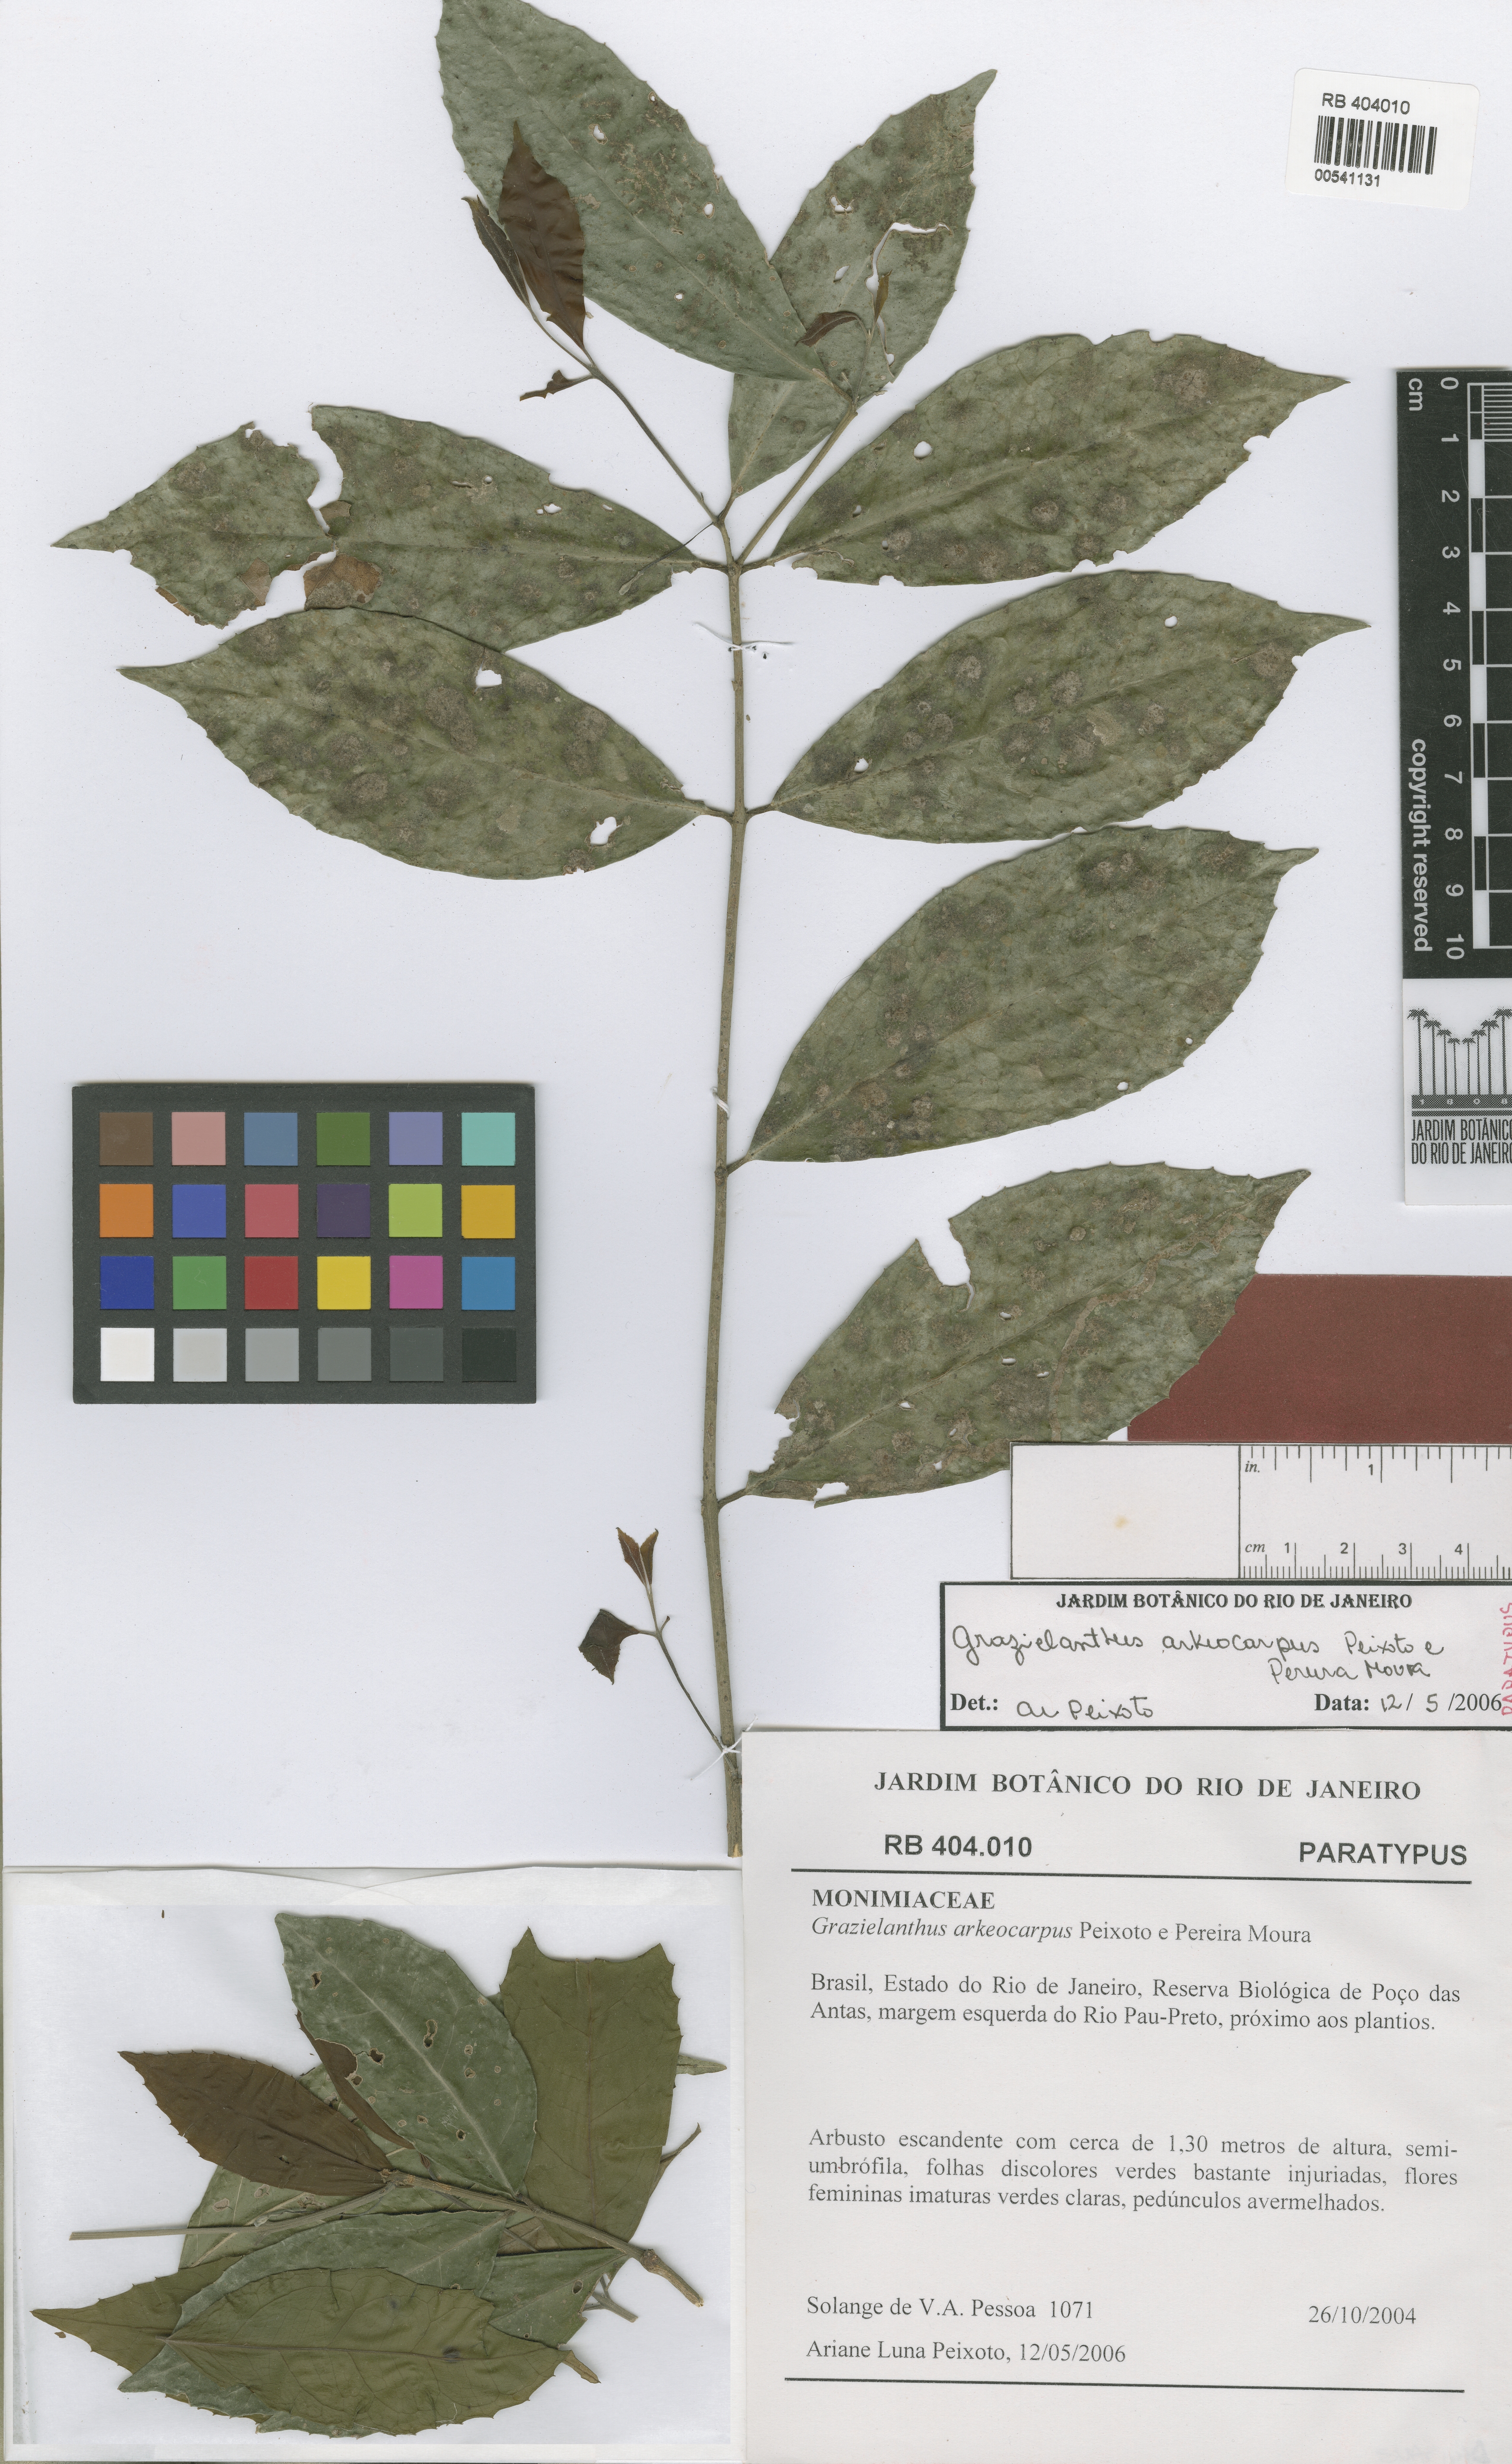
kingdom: Plantae
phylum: Tracheophyta
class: Magnoliopsida
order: Laurales
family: Monimiaceae
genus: Grazielanthus
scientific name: Grazielanthus arkeocarpus
